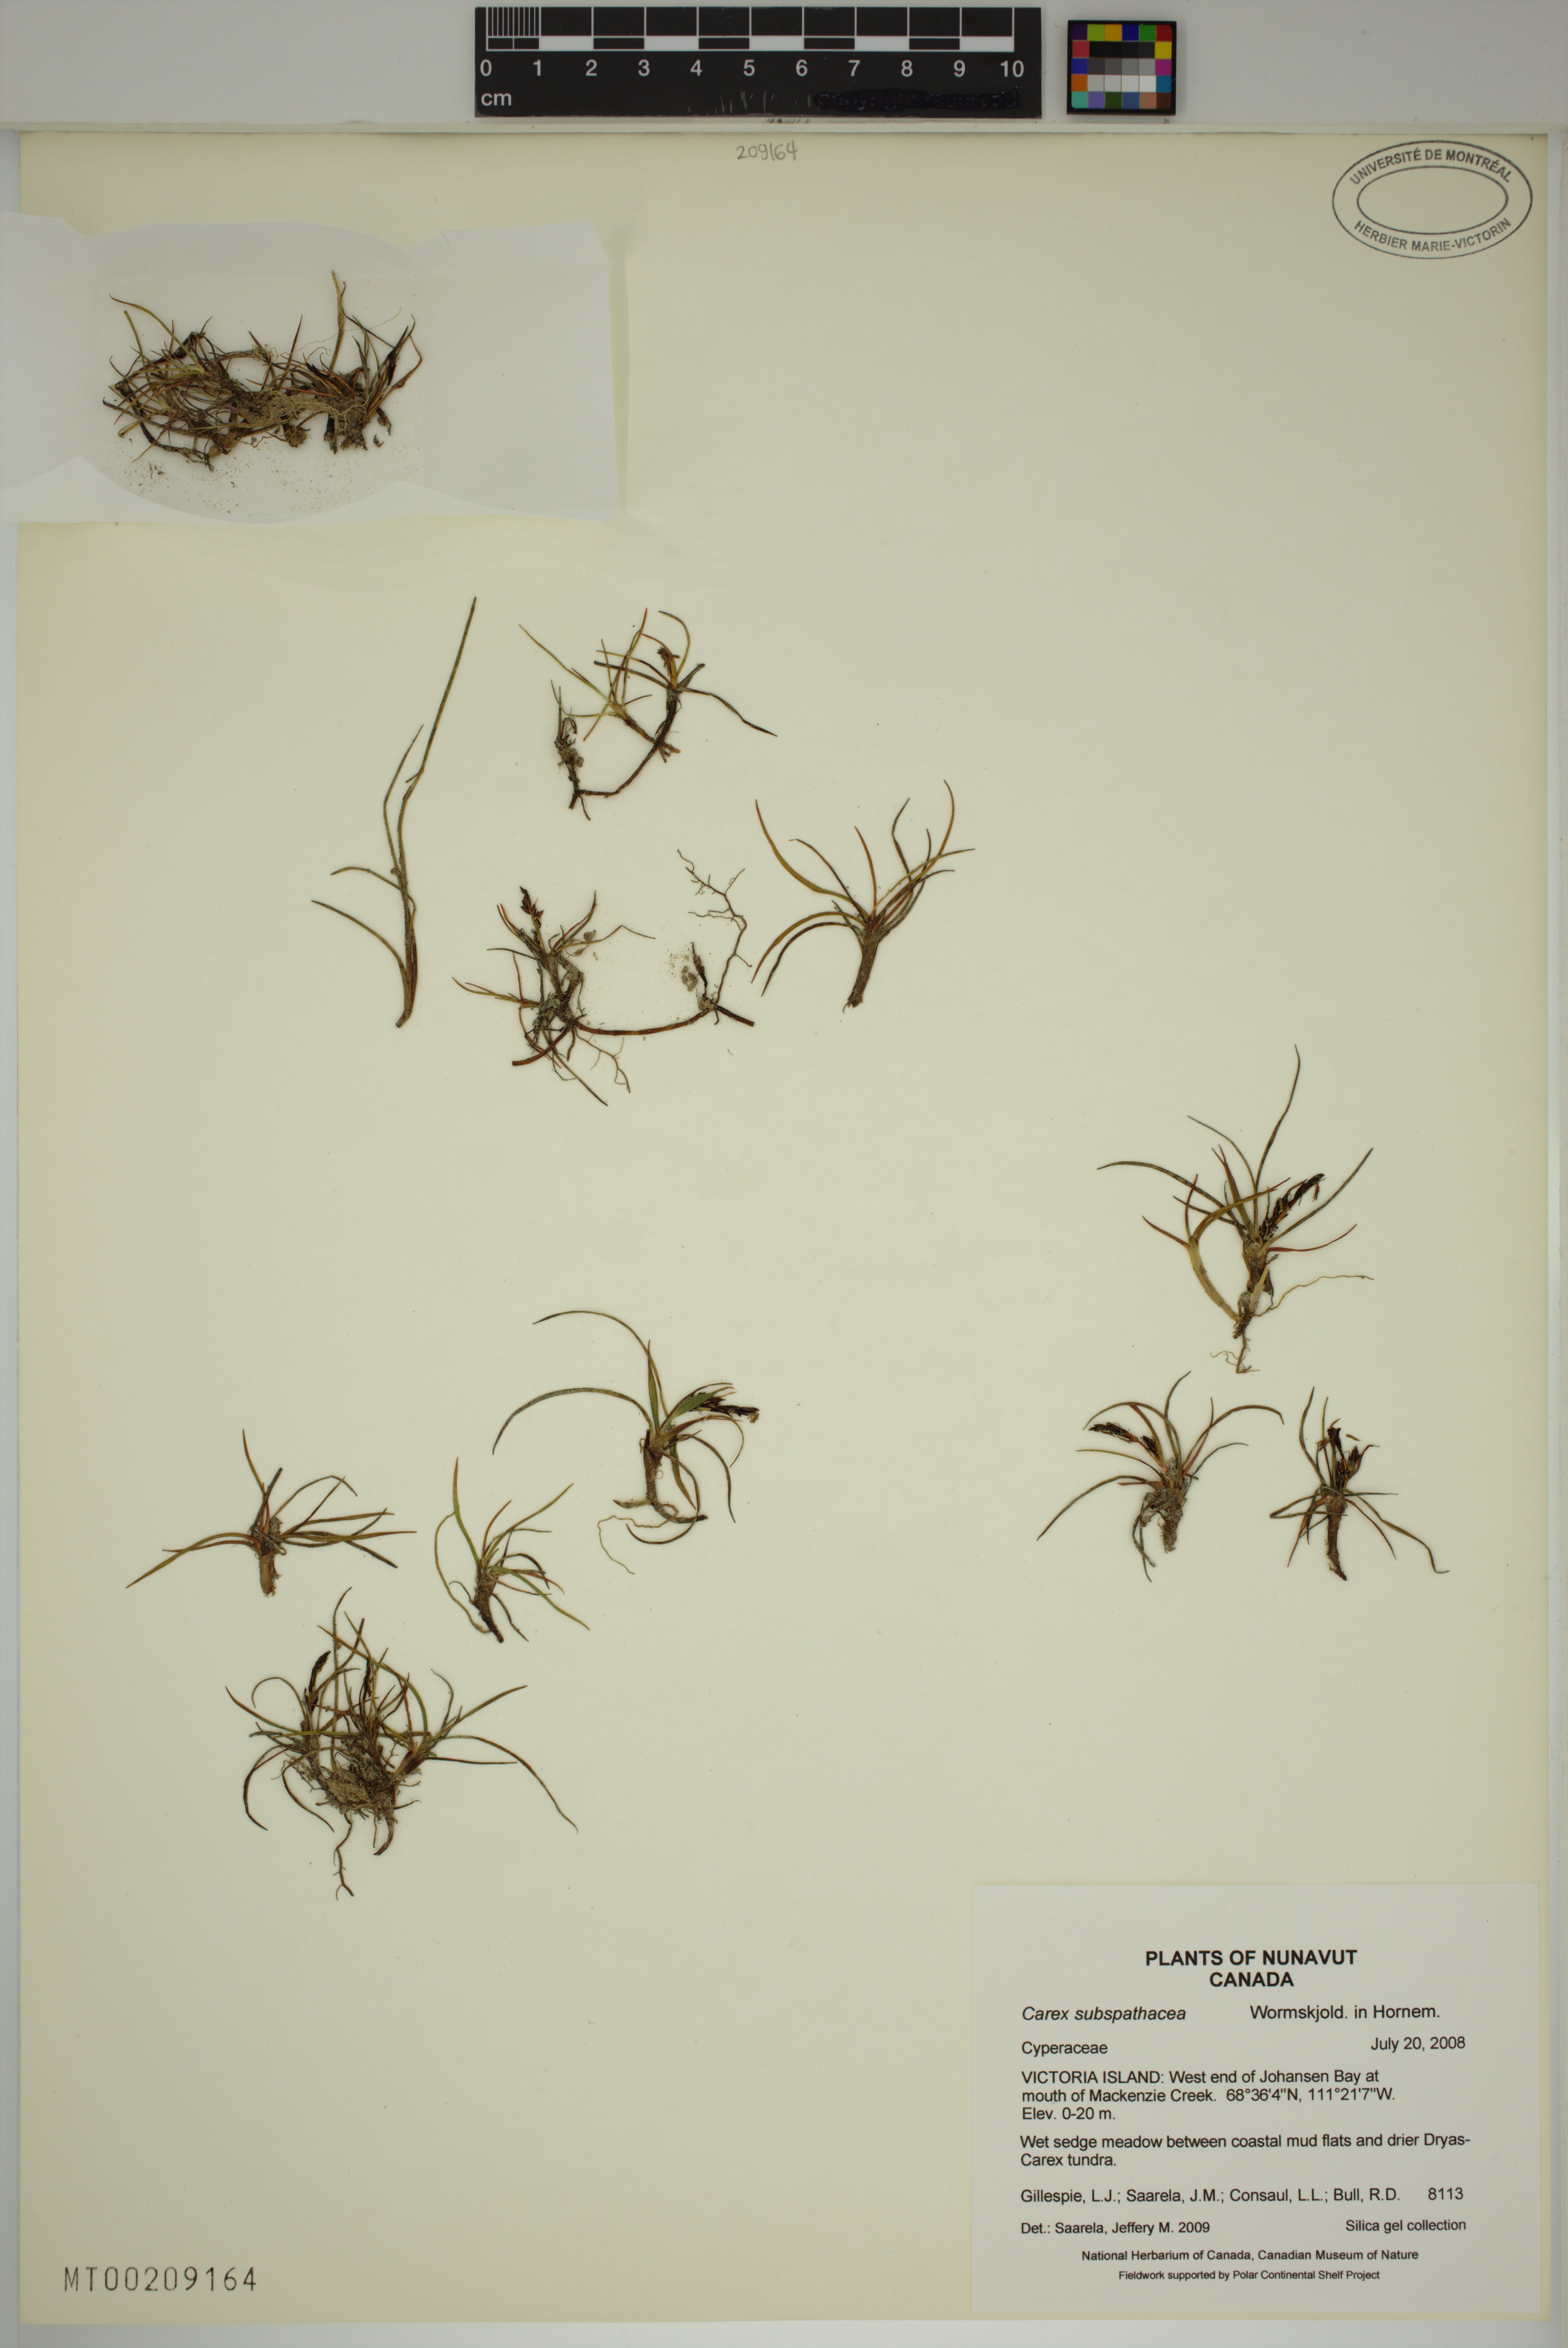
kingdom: Plantae
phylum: Tracheophyta
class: Liliopsida
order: Poales
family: Cyperaceae
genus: Carex
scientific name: Carex subspathacea
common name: Hoppner's sedge
